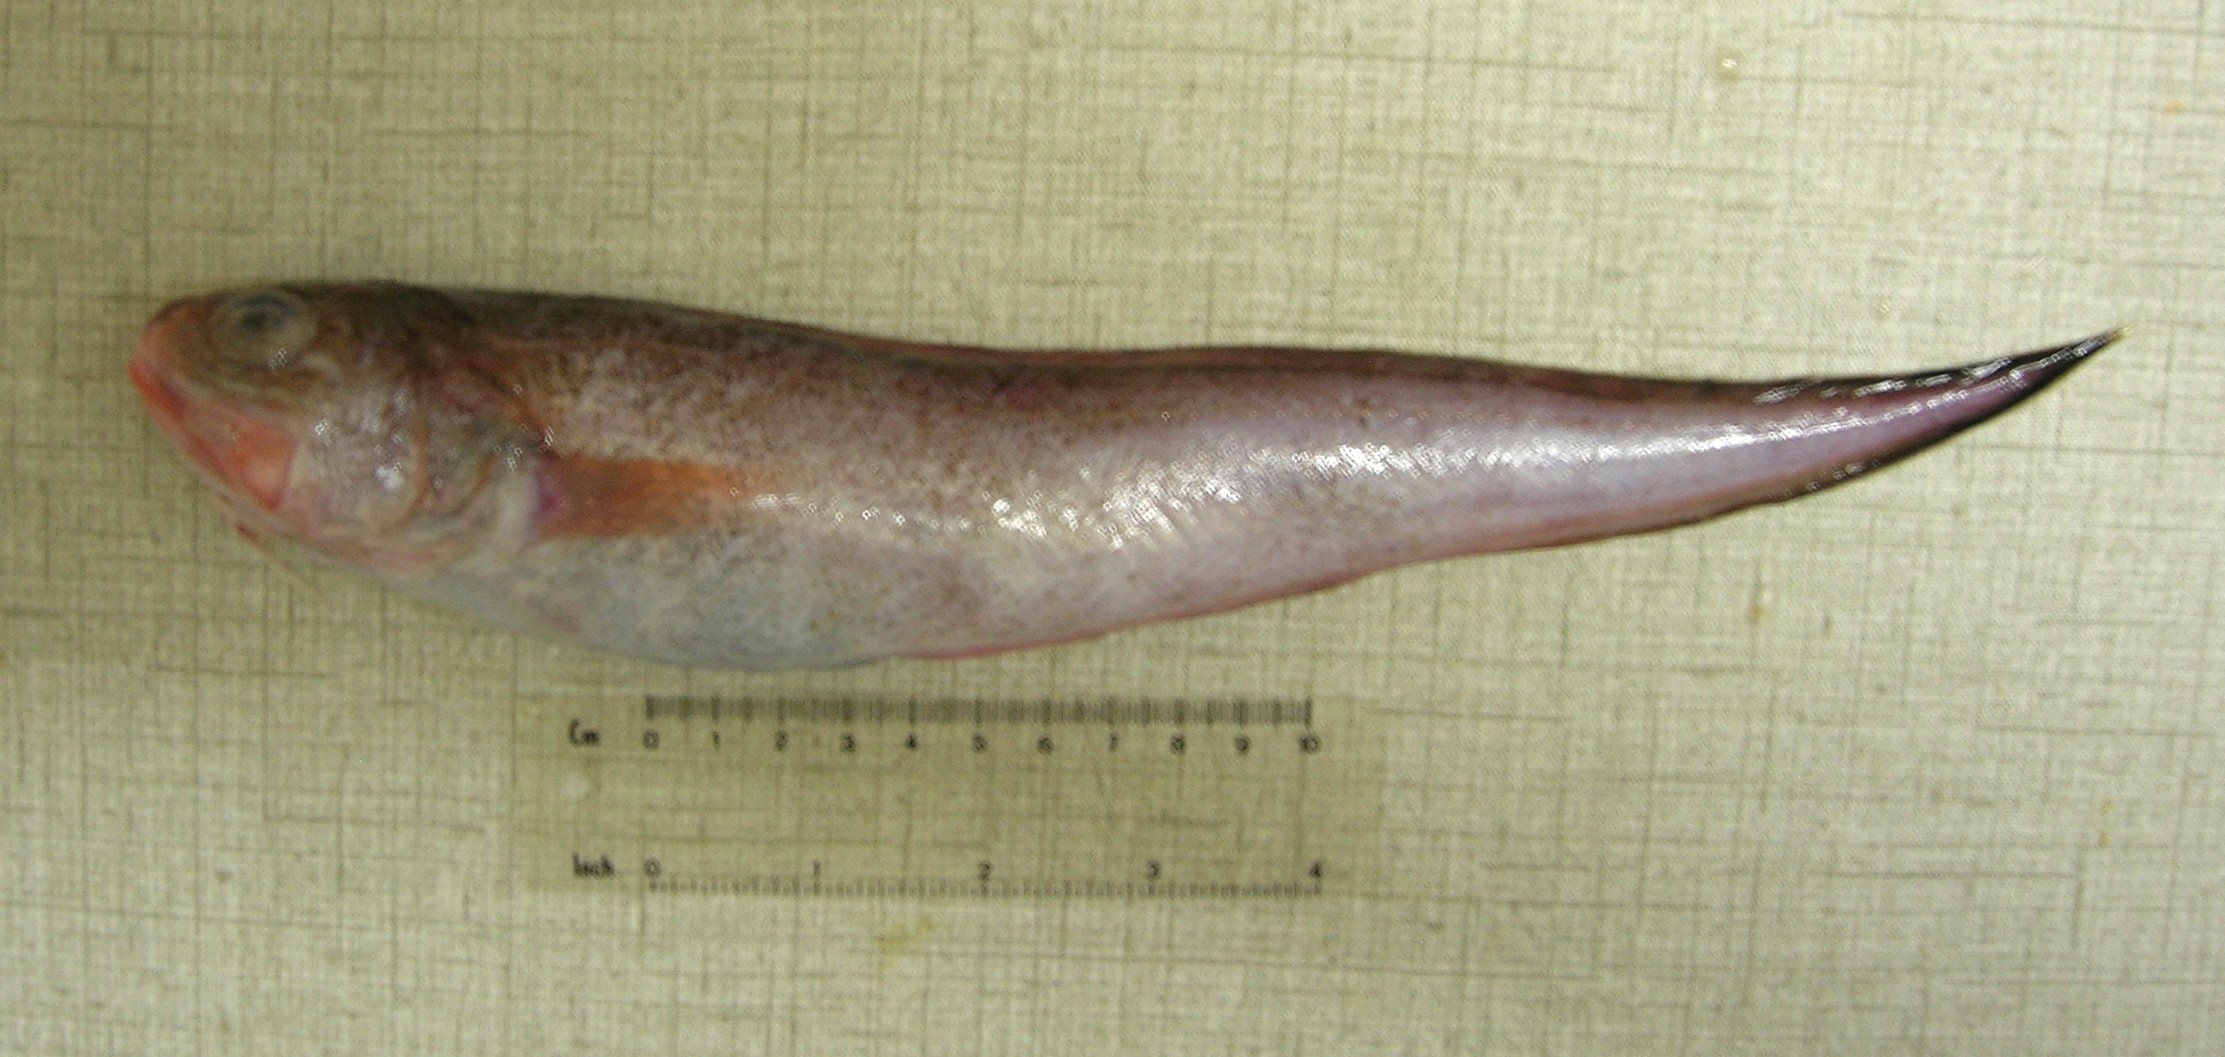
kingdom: Animalia
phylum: Chordata
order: Ophidiiformes
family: Ophidiidae
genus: Hoplobrotula
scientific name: Hoplobrotula gnathopus
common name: False kingklip
